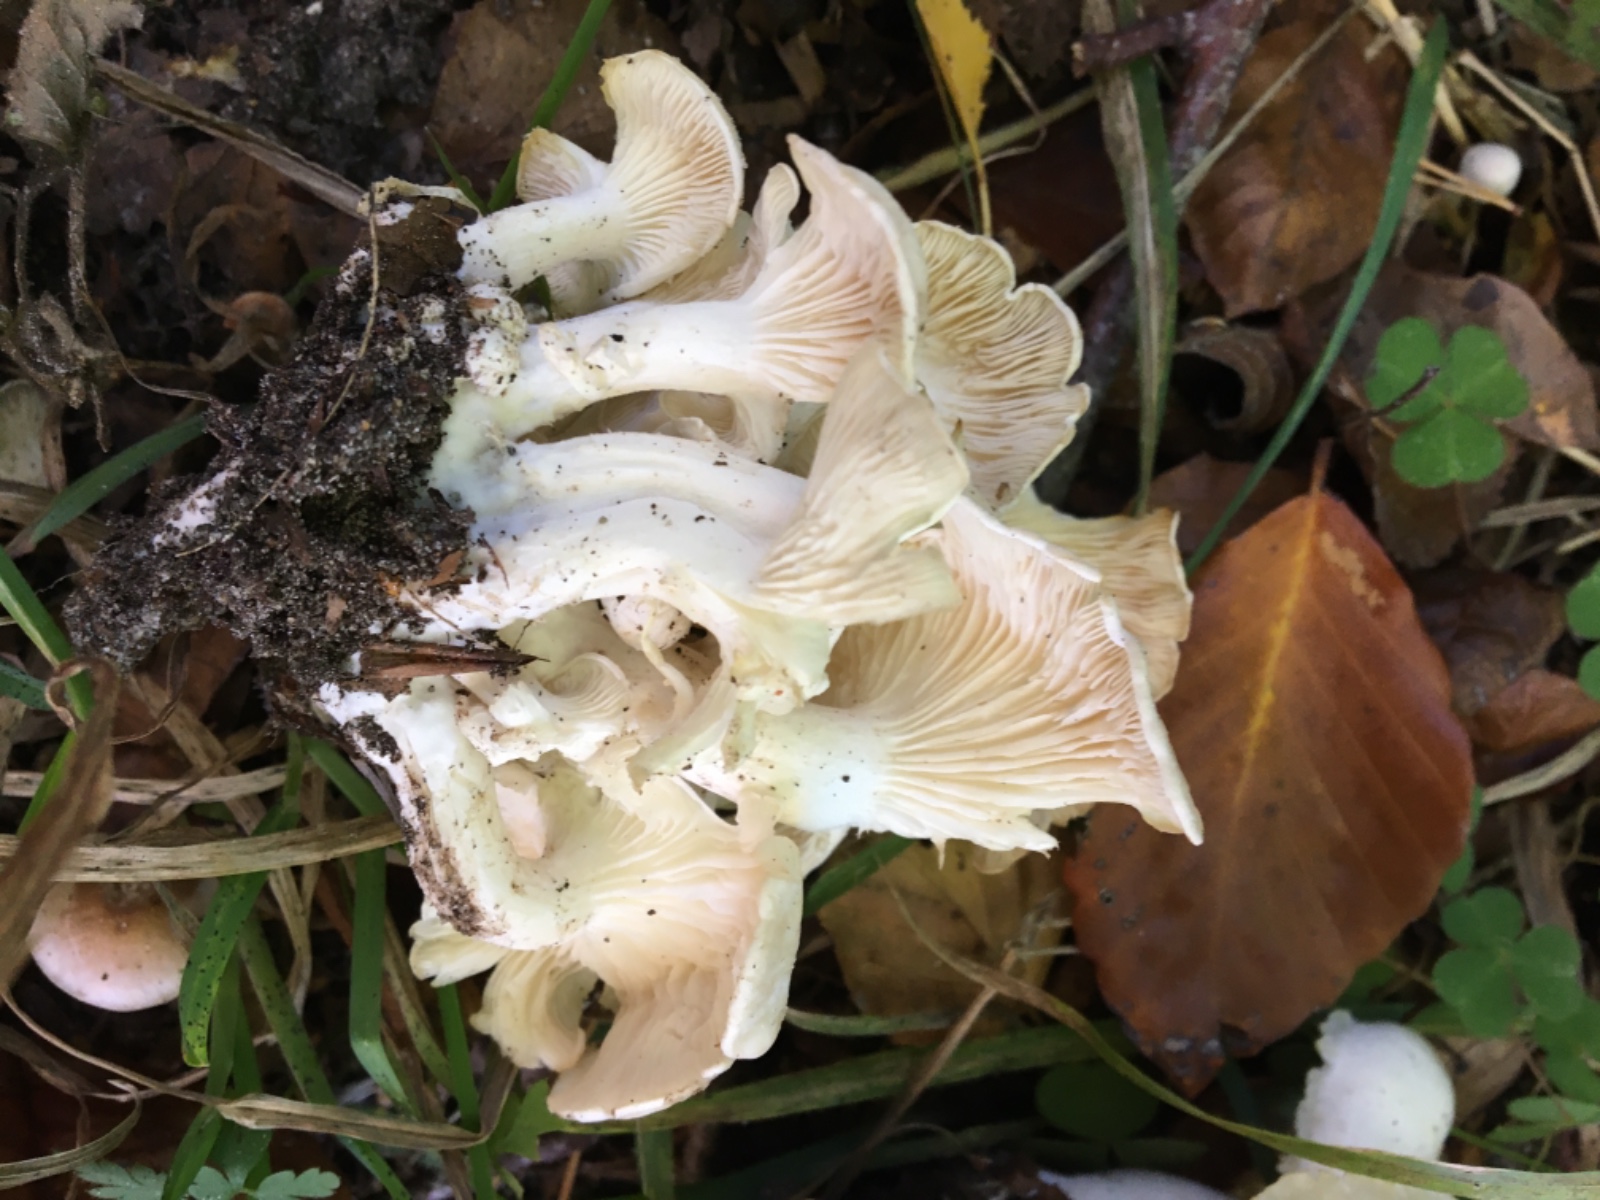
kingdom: Fungi
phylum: Basidiomycota
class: Agaricomycetes
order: Agaricales
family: Tricholomataceae
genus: Leucocybe
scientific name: Leucocybe connata
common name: knippe-tragthat
